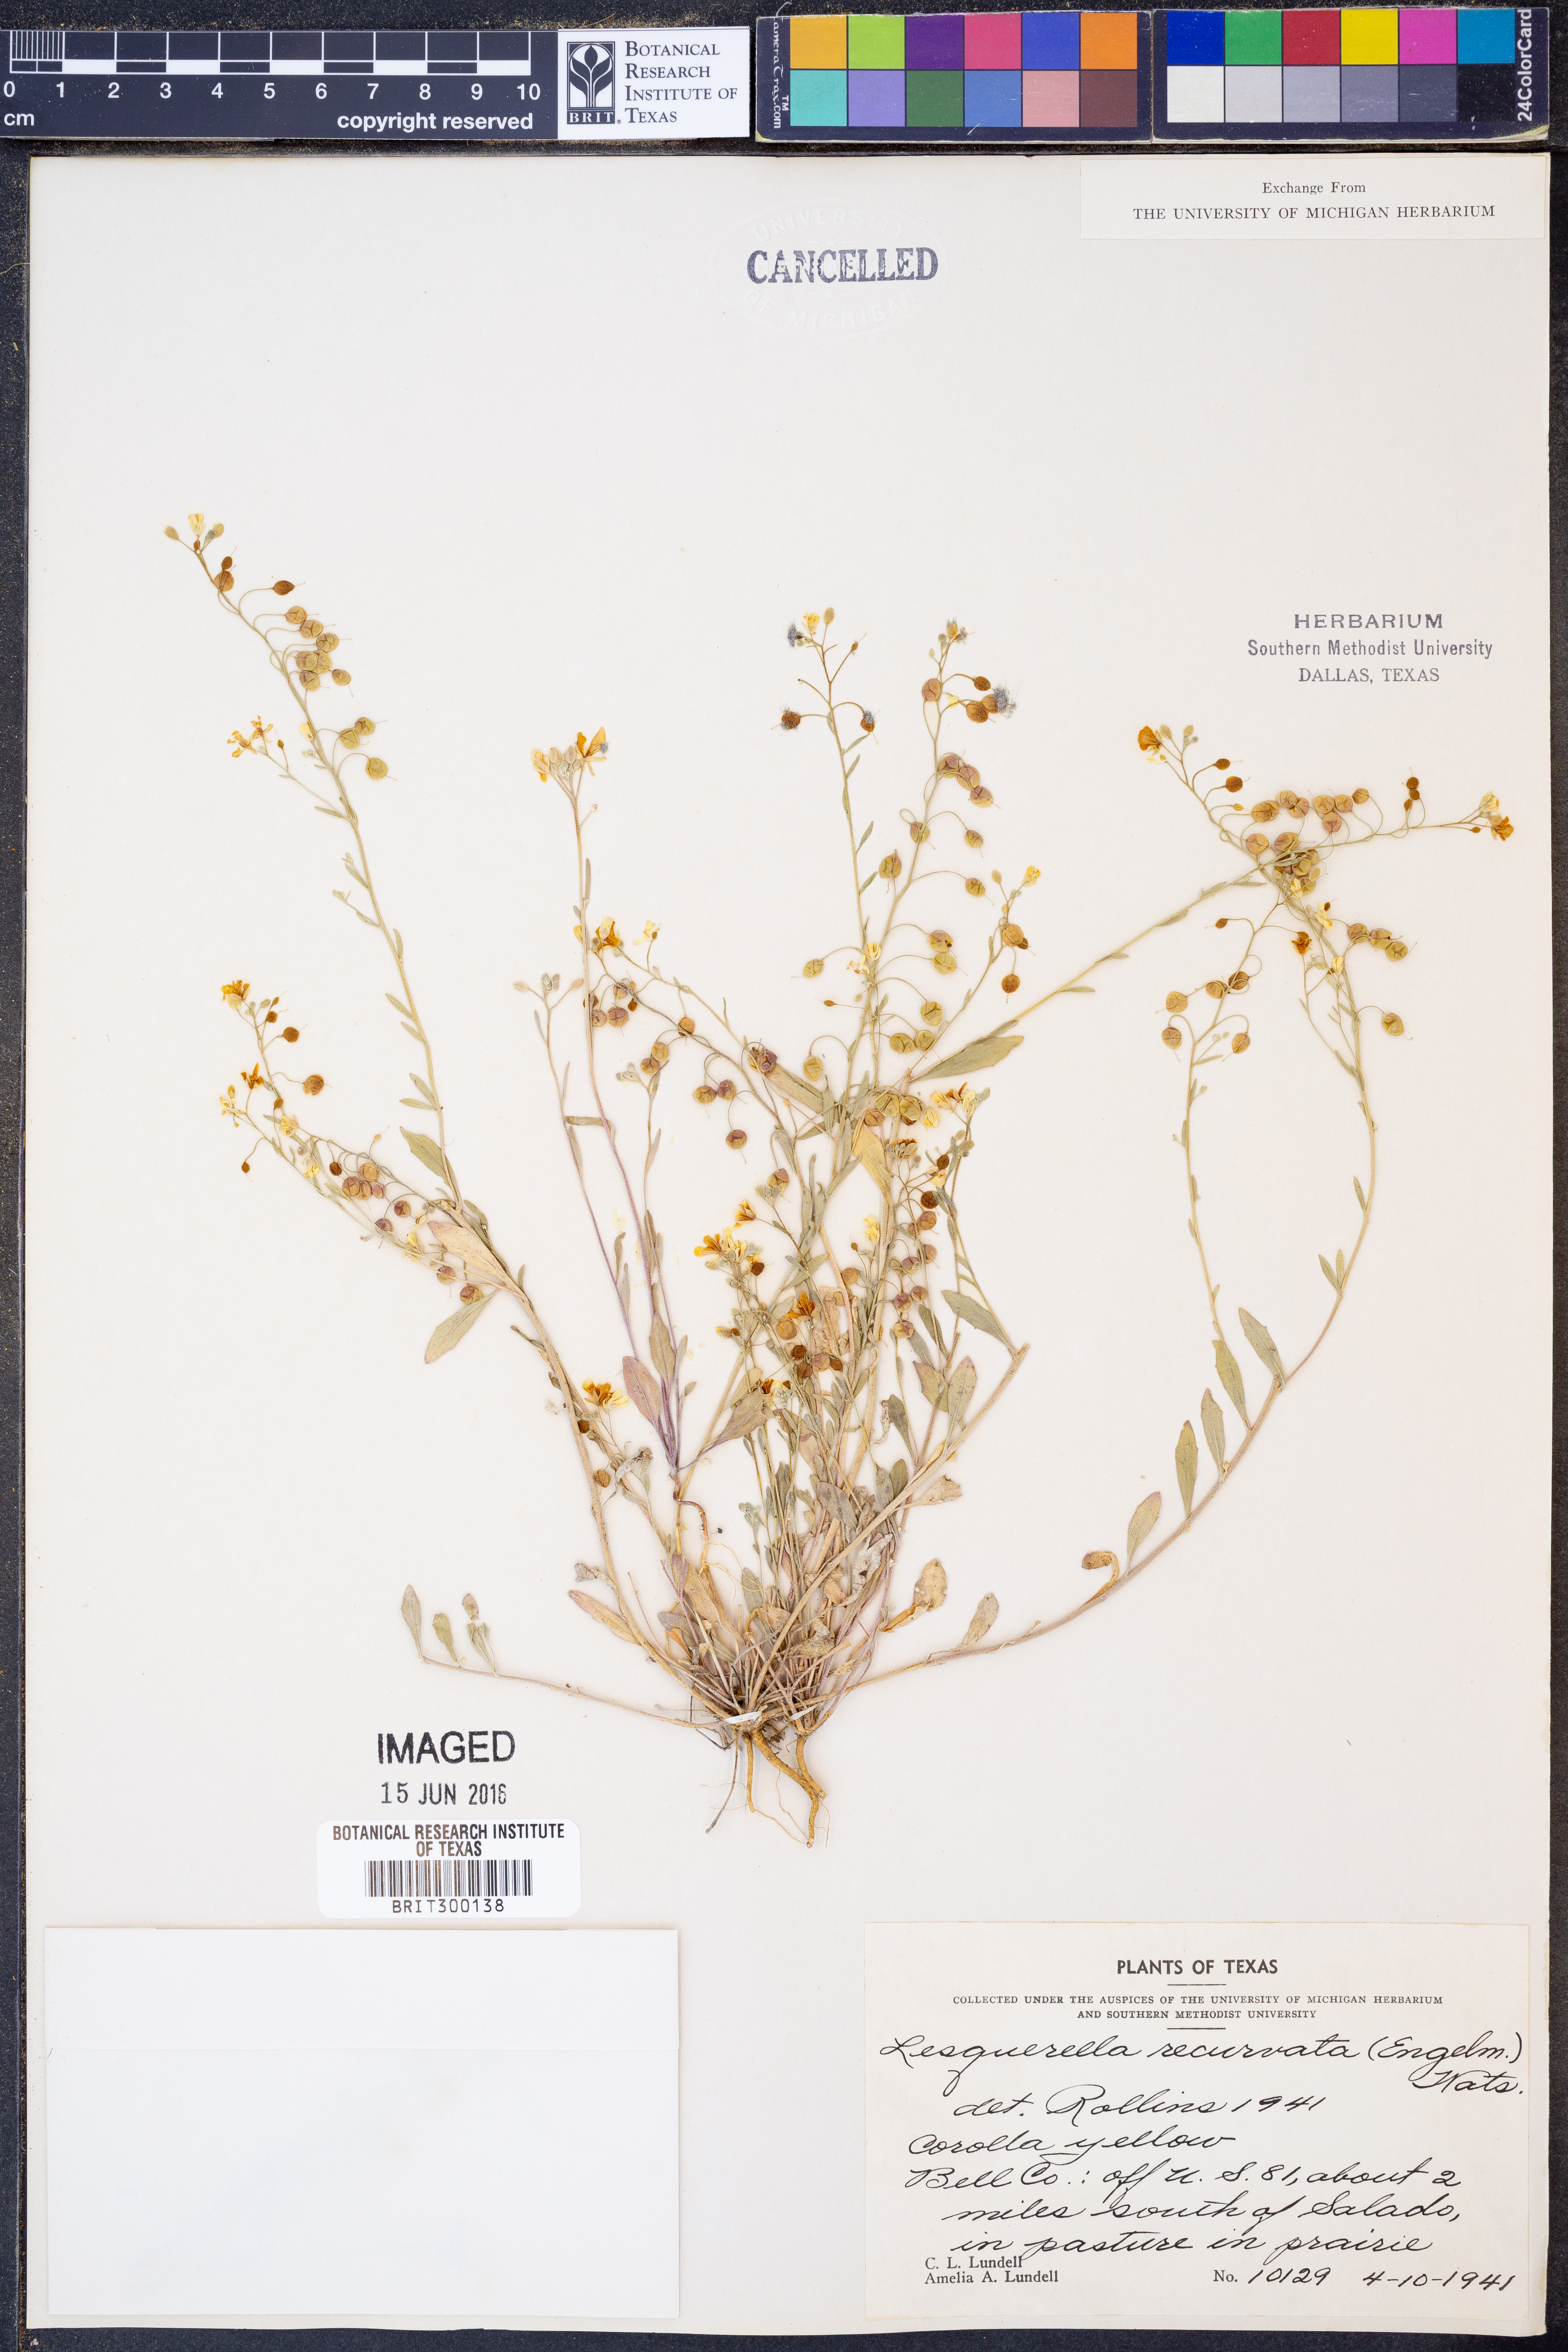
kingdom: Plantae
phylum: Tracheophyta
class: Magnoliopsida
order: Brassicales
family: Brassicaceae
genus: Physaria
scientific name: Physaria recurvata
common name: Gaslight bladderpod
